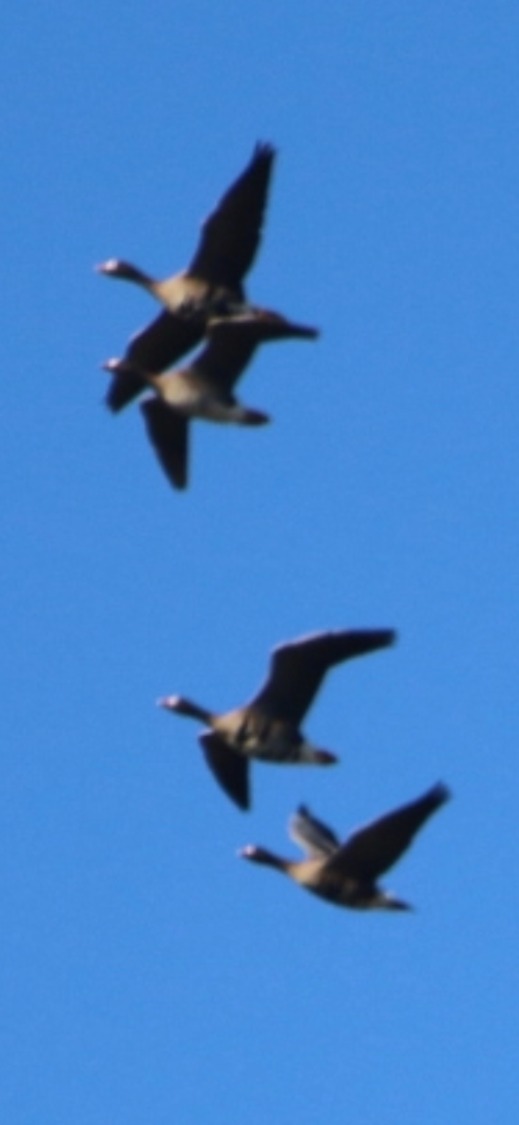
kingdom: Animalia
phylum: Chordata
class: Aves
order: Anseriformes
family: Anatidae
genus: Anser
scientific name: Anser albifrons
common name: Blisgås
